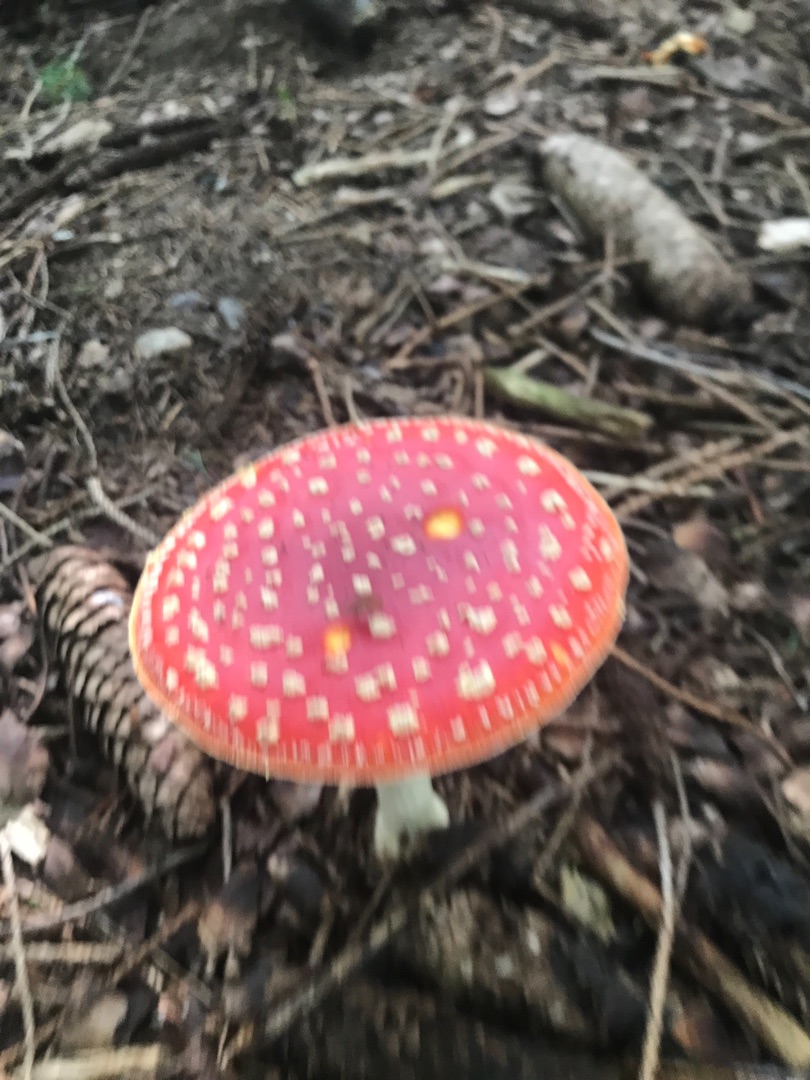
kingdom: Fungi
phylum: Basidiomycota
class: Agaricomycetes
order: Agaricales
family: Amanitaceae
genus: Amanita
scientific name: Amanita muscaria
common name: Rød fluesvamp
